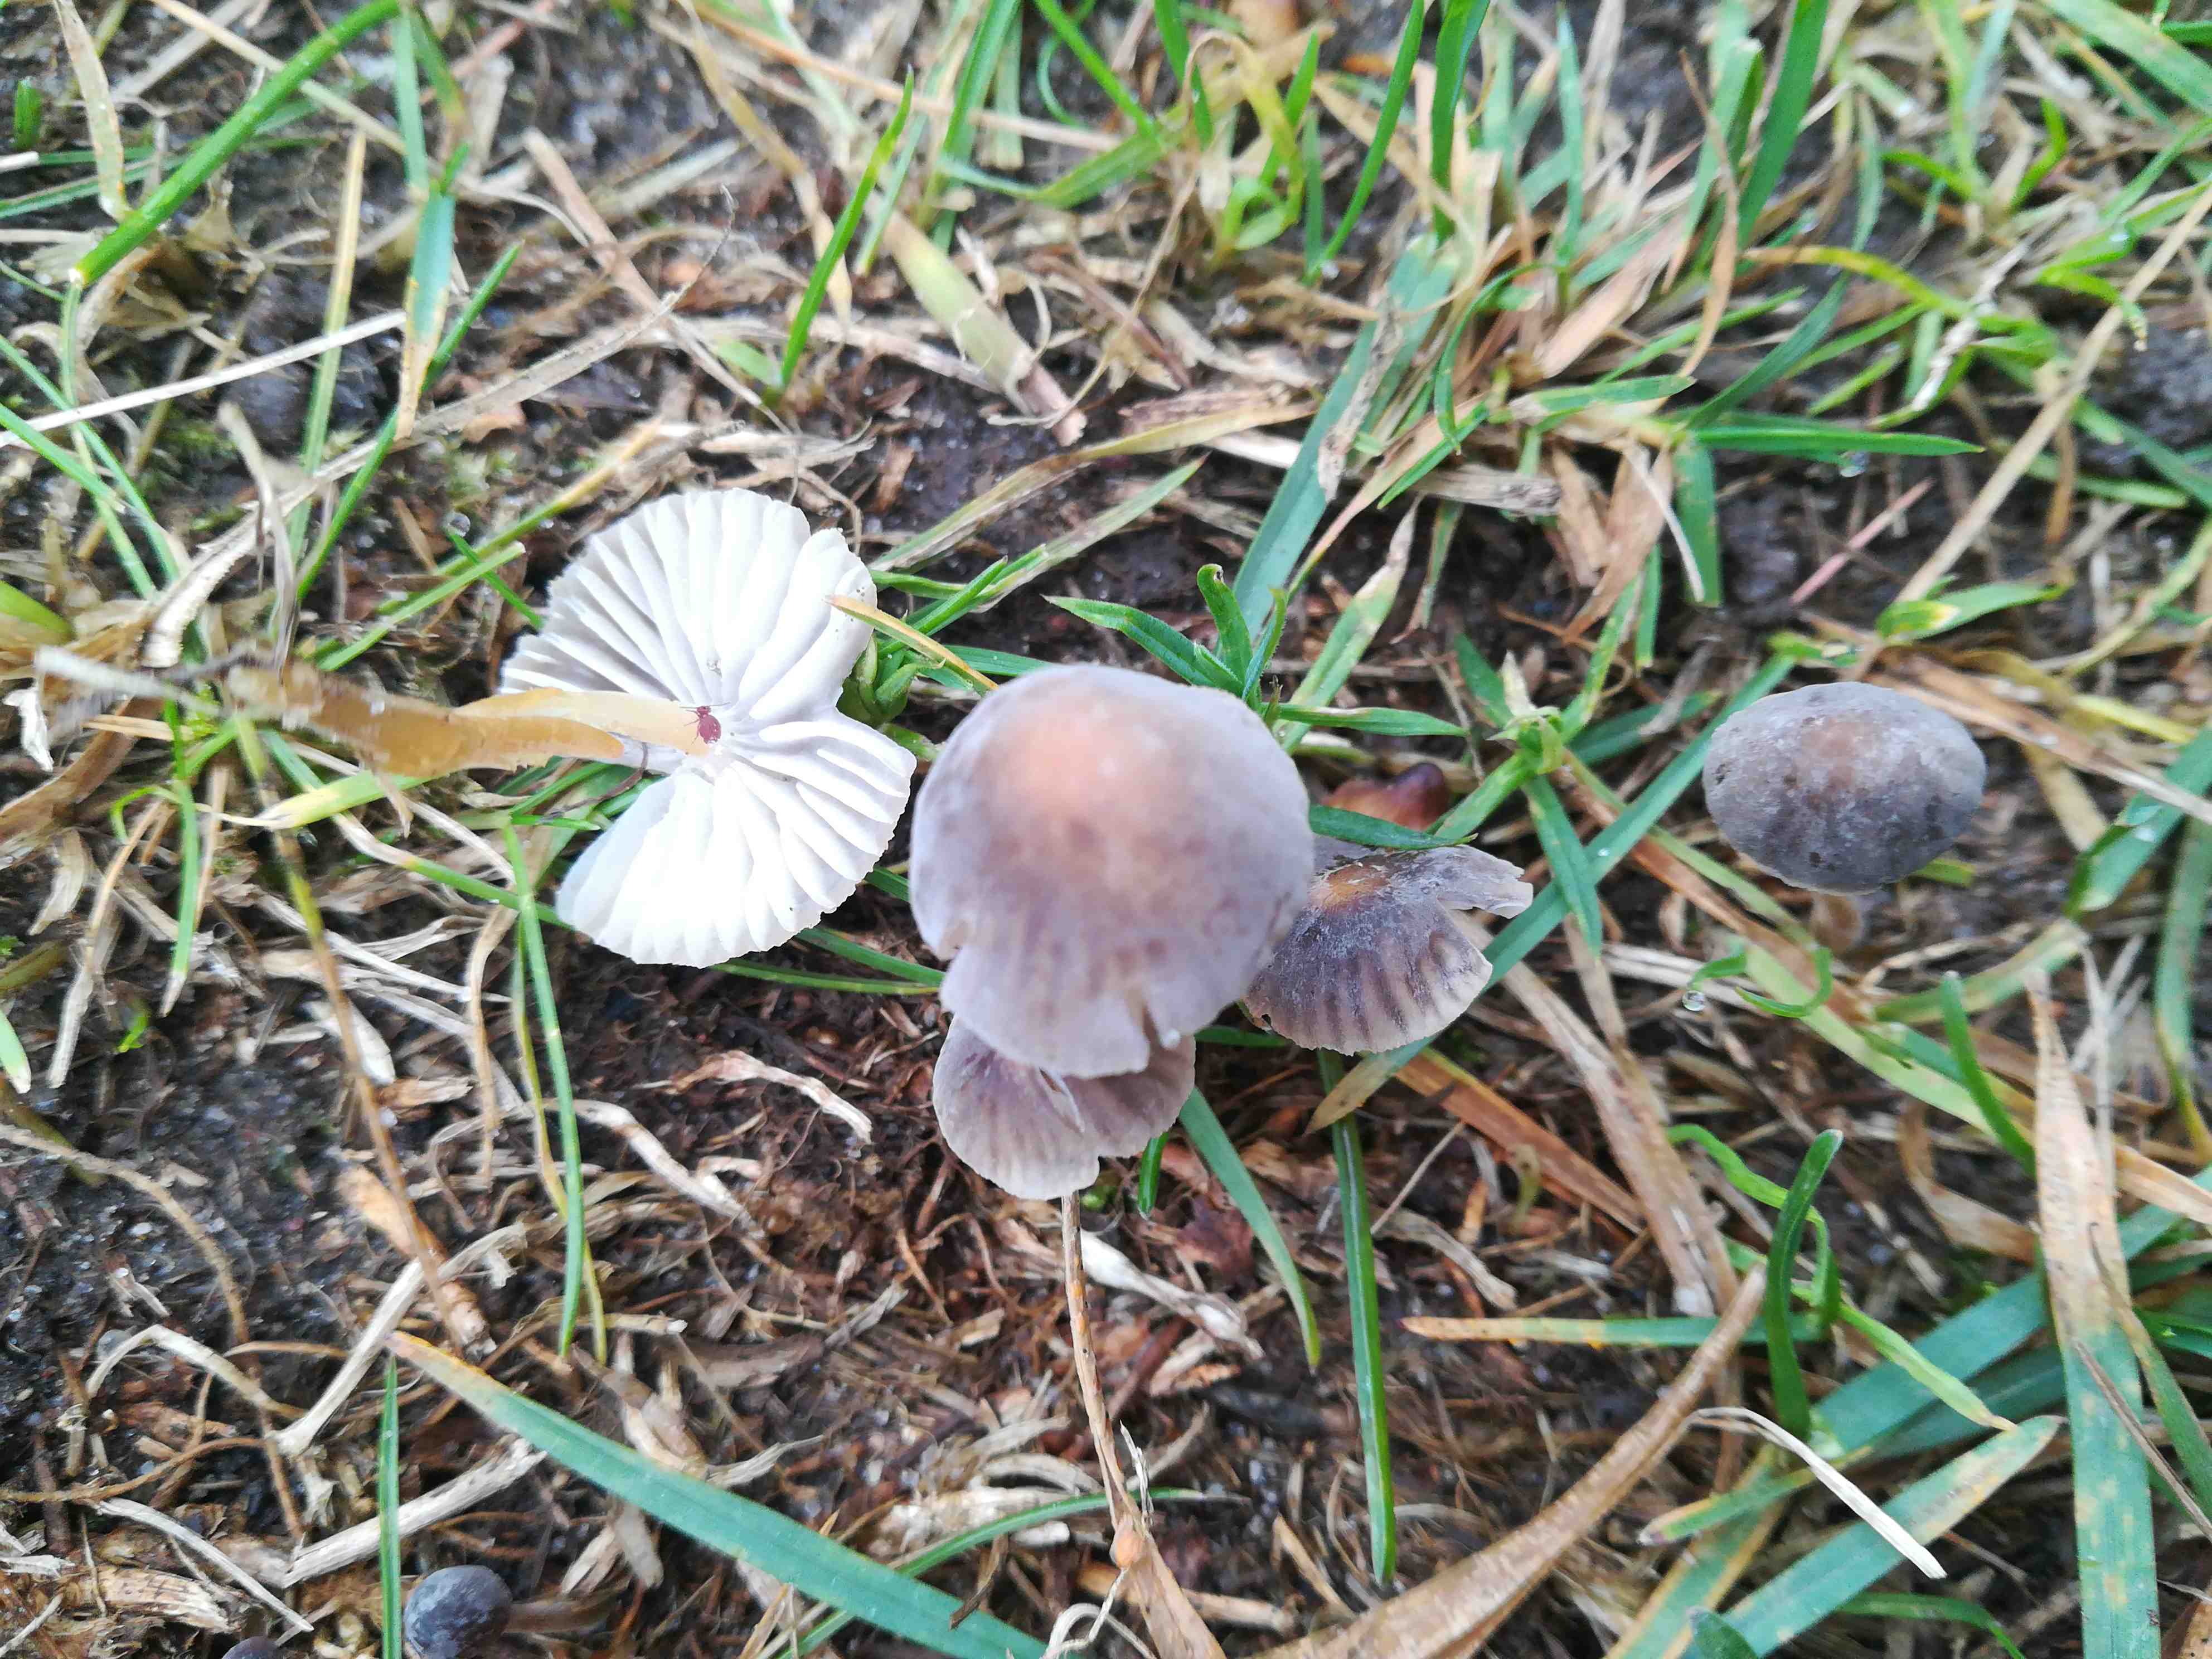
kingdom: Fungi
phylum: Basidiomycota
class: Agaricomycetes
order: Agaricales
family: Mycenaceae
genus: Mycena
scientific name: Mycena olivaceomarginata
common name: brunægget huesvamp
